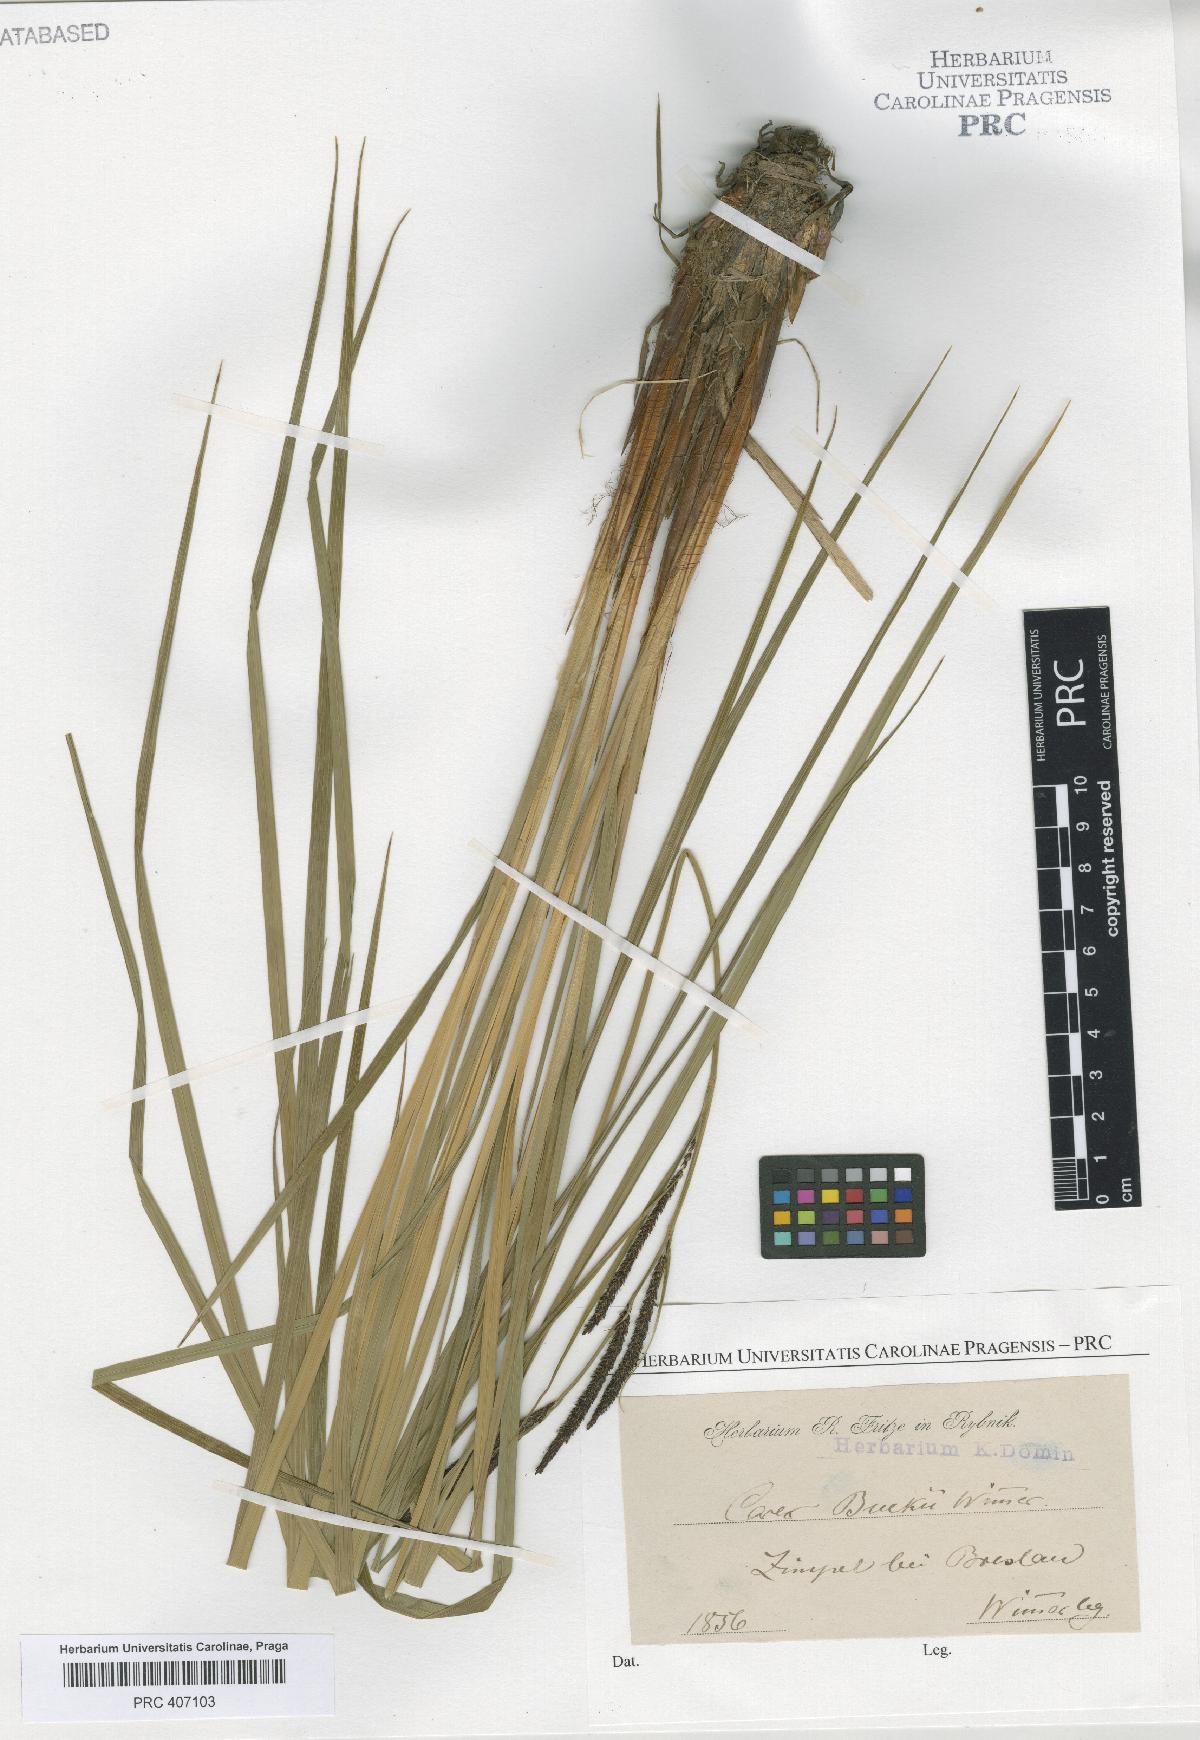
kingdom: Plantae
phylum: Tracheophyta
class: Liliopsida
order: Poales
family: Cyperaceae
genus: Carex
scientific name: Carex buekii
